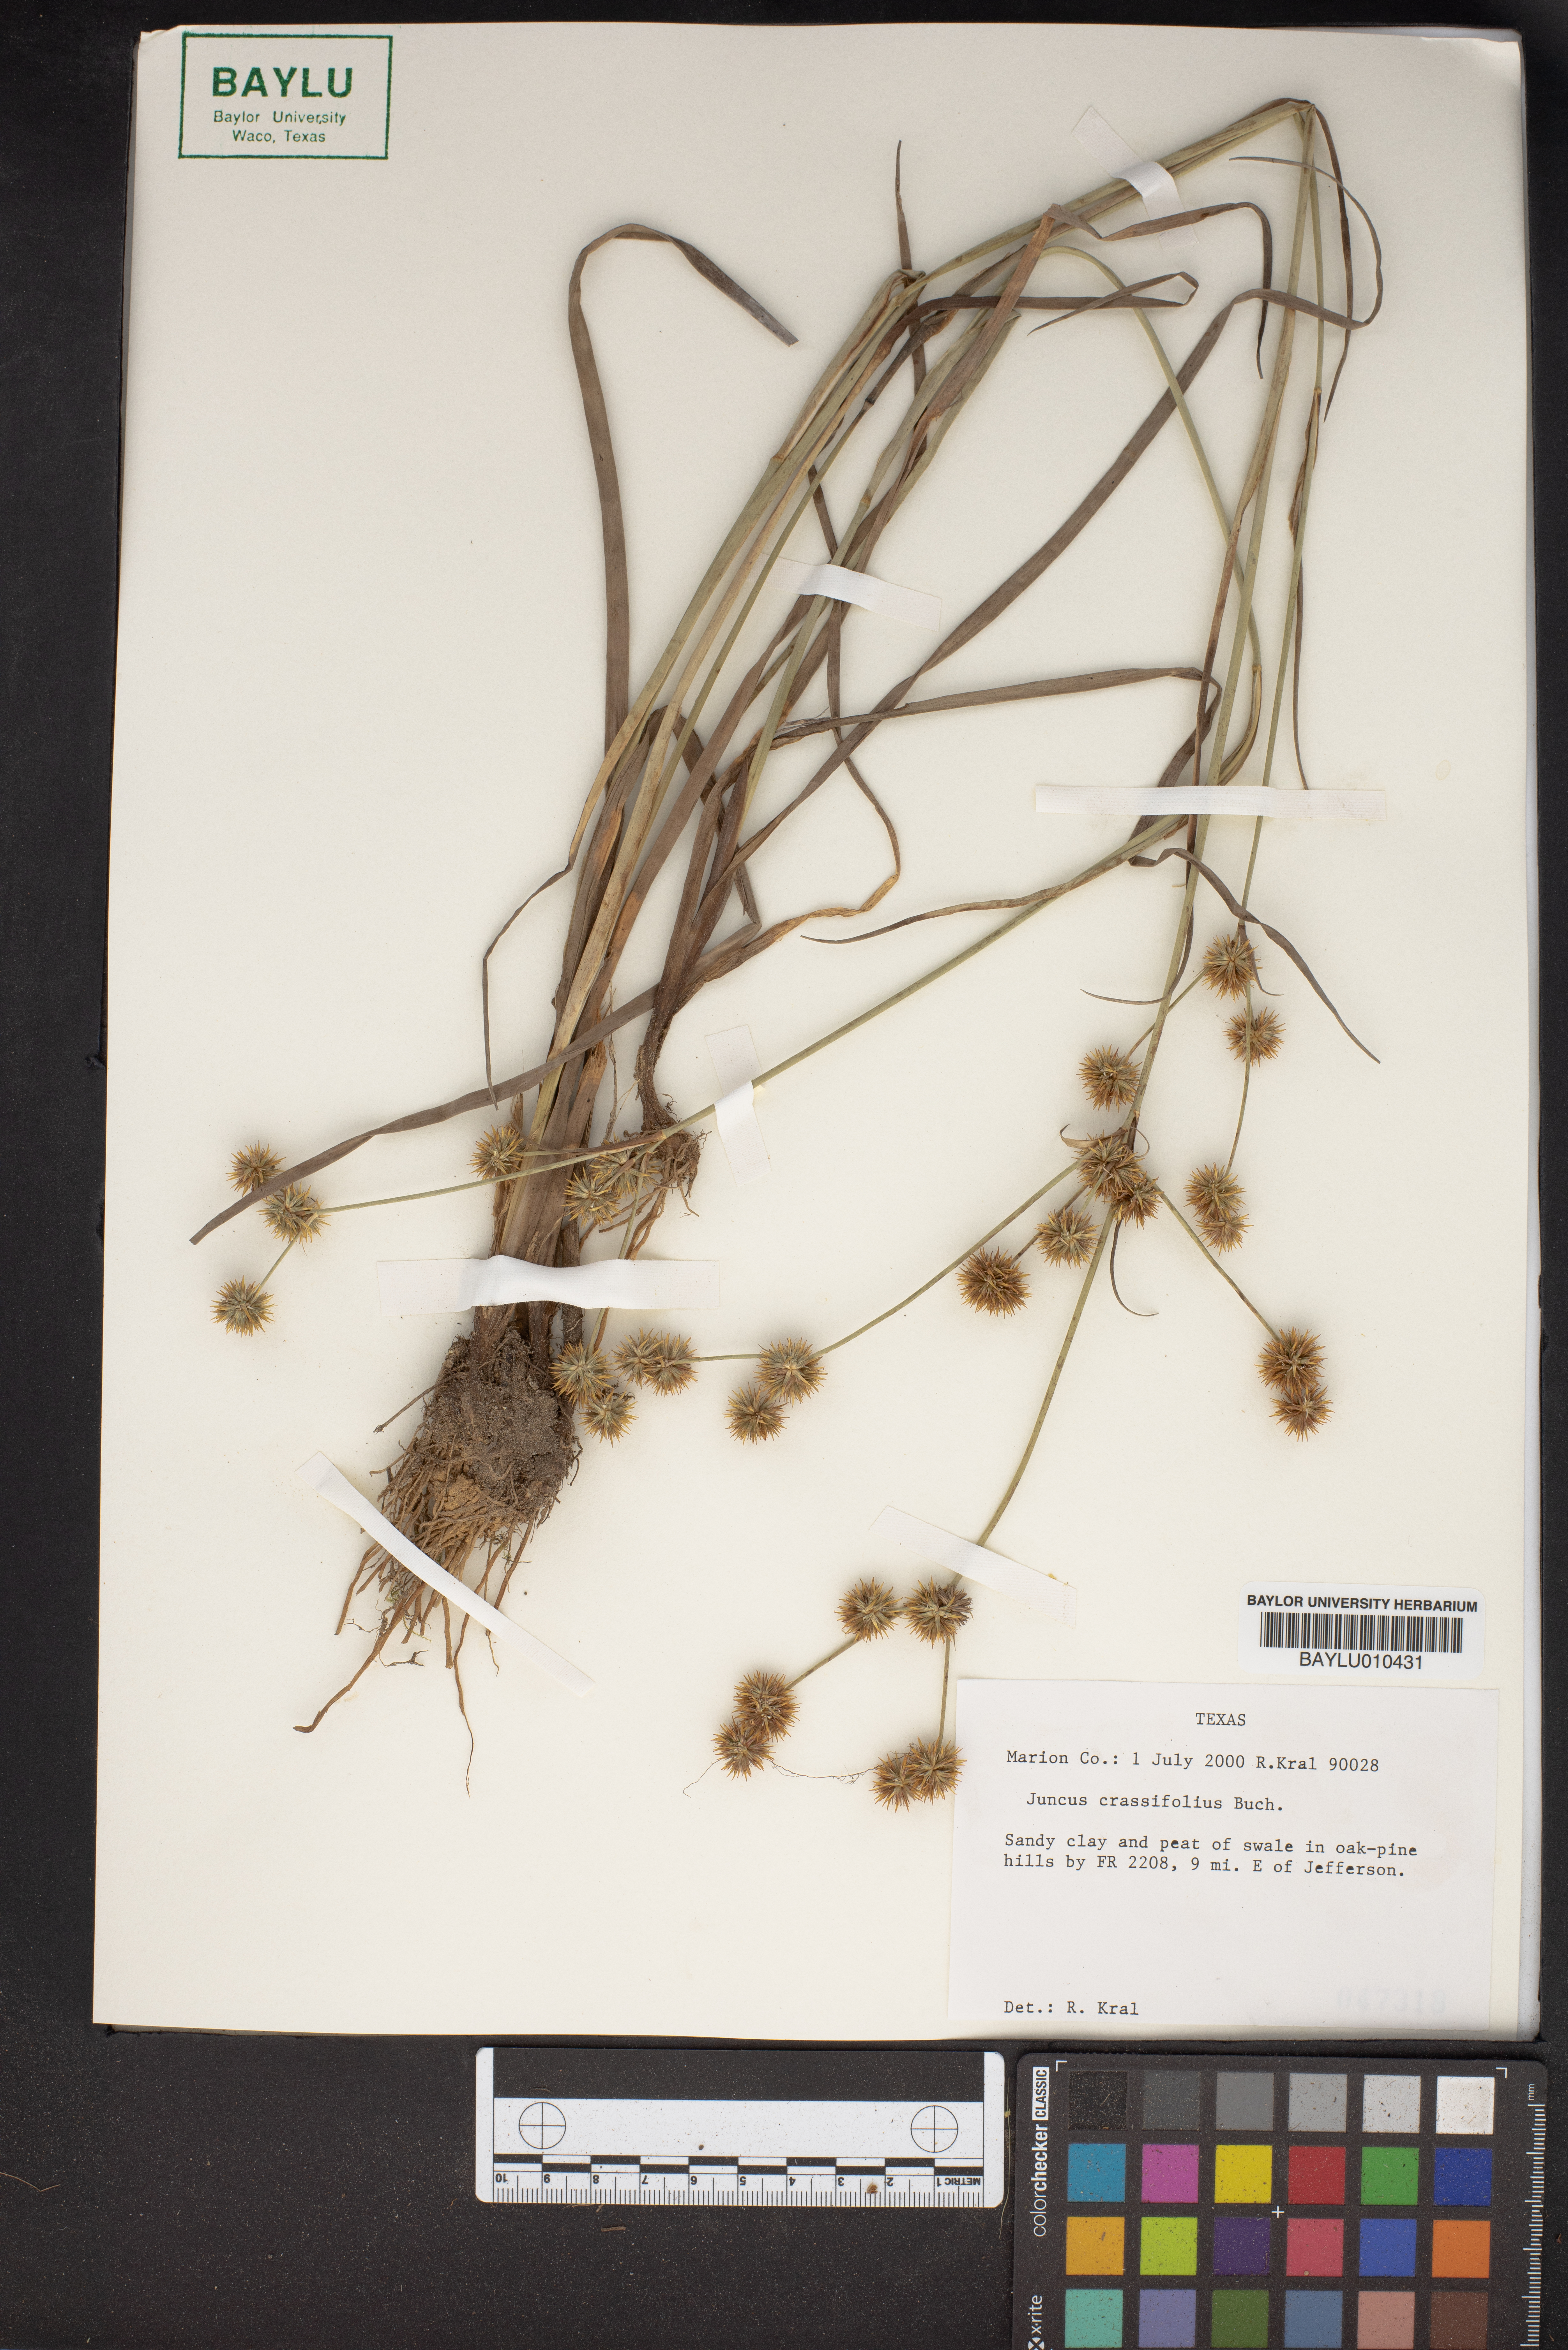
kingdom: Plantae
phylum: Tracheophyta
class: Liliopsida
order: Poales
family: Juncaceae
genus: Juncus
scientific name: Juncus validus
